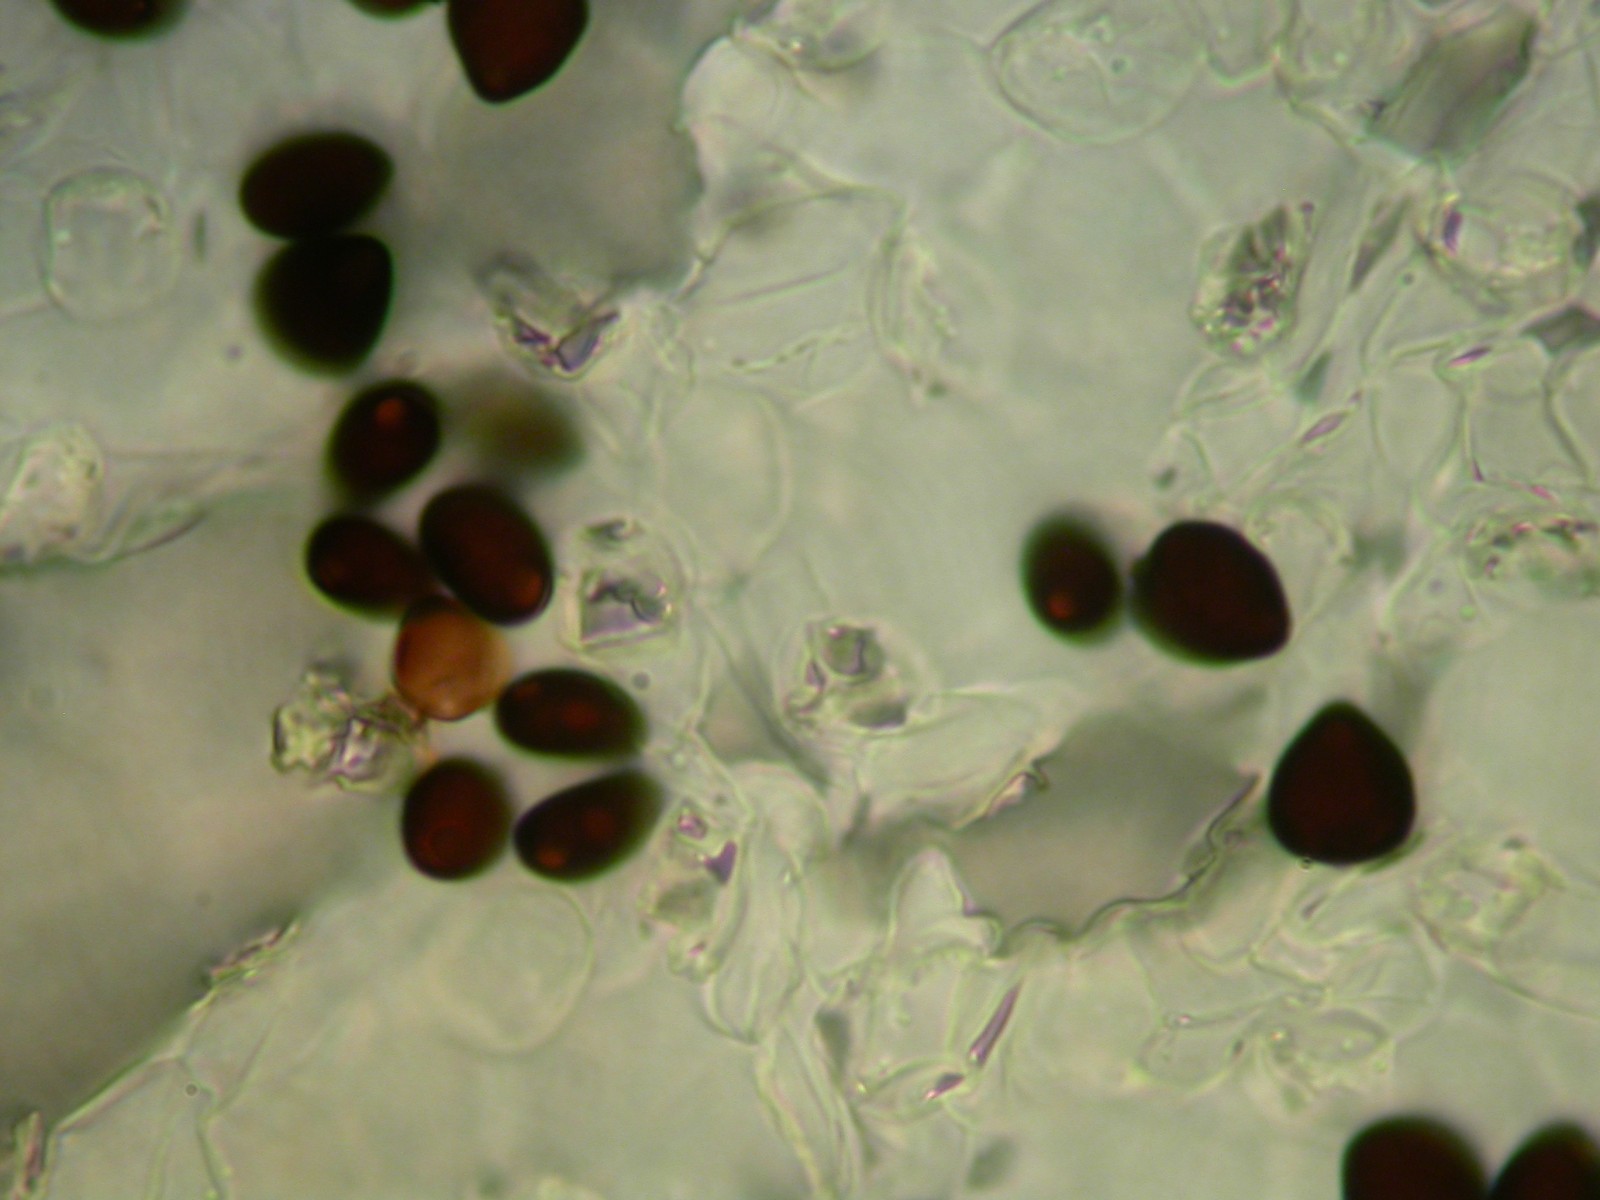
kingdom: Fungi
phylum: Basidiomycota
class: Agaricomycetes
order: Agaricales
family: Psathyrellaceae
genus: Parasola
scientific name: Parasola crataegi
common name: tjørne-hjulhat
